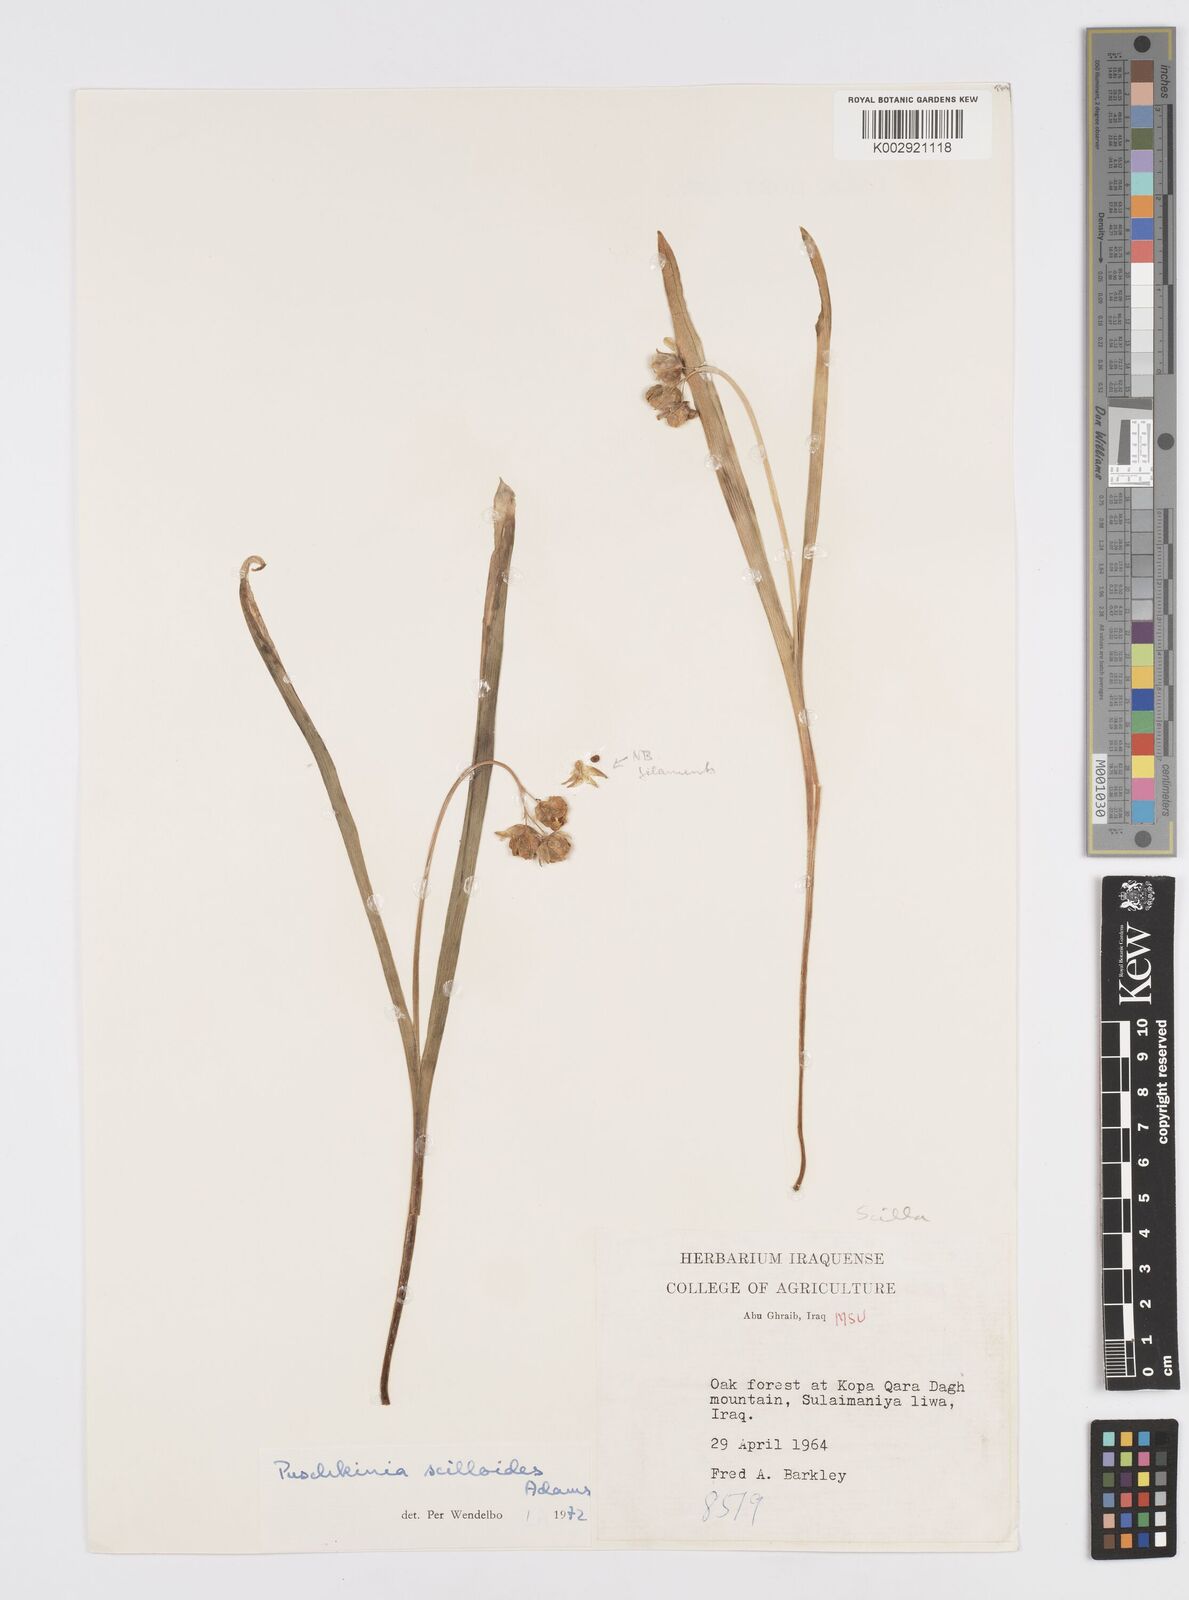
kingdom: Plantae
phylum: Tracheophyta
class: Liliopsida
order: Asparagales
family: Asparagaceae
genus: Puschkinia
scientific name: Puschkinia scilloides
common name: Striped squill
